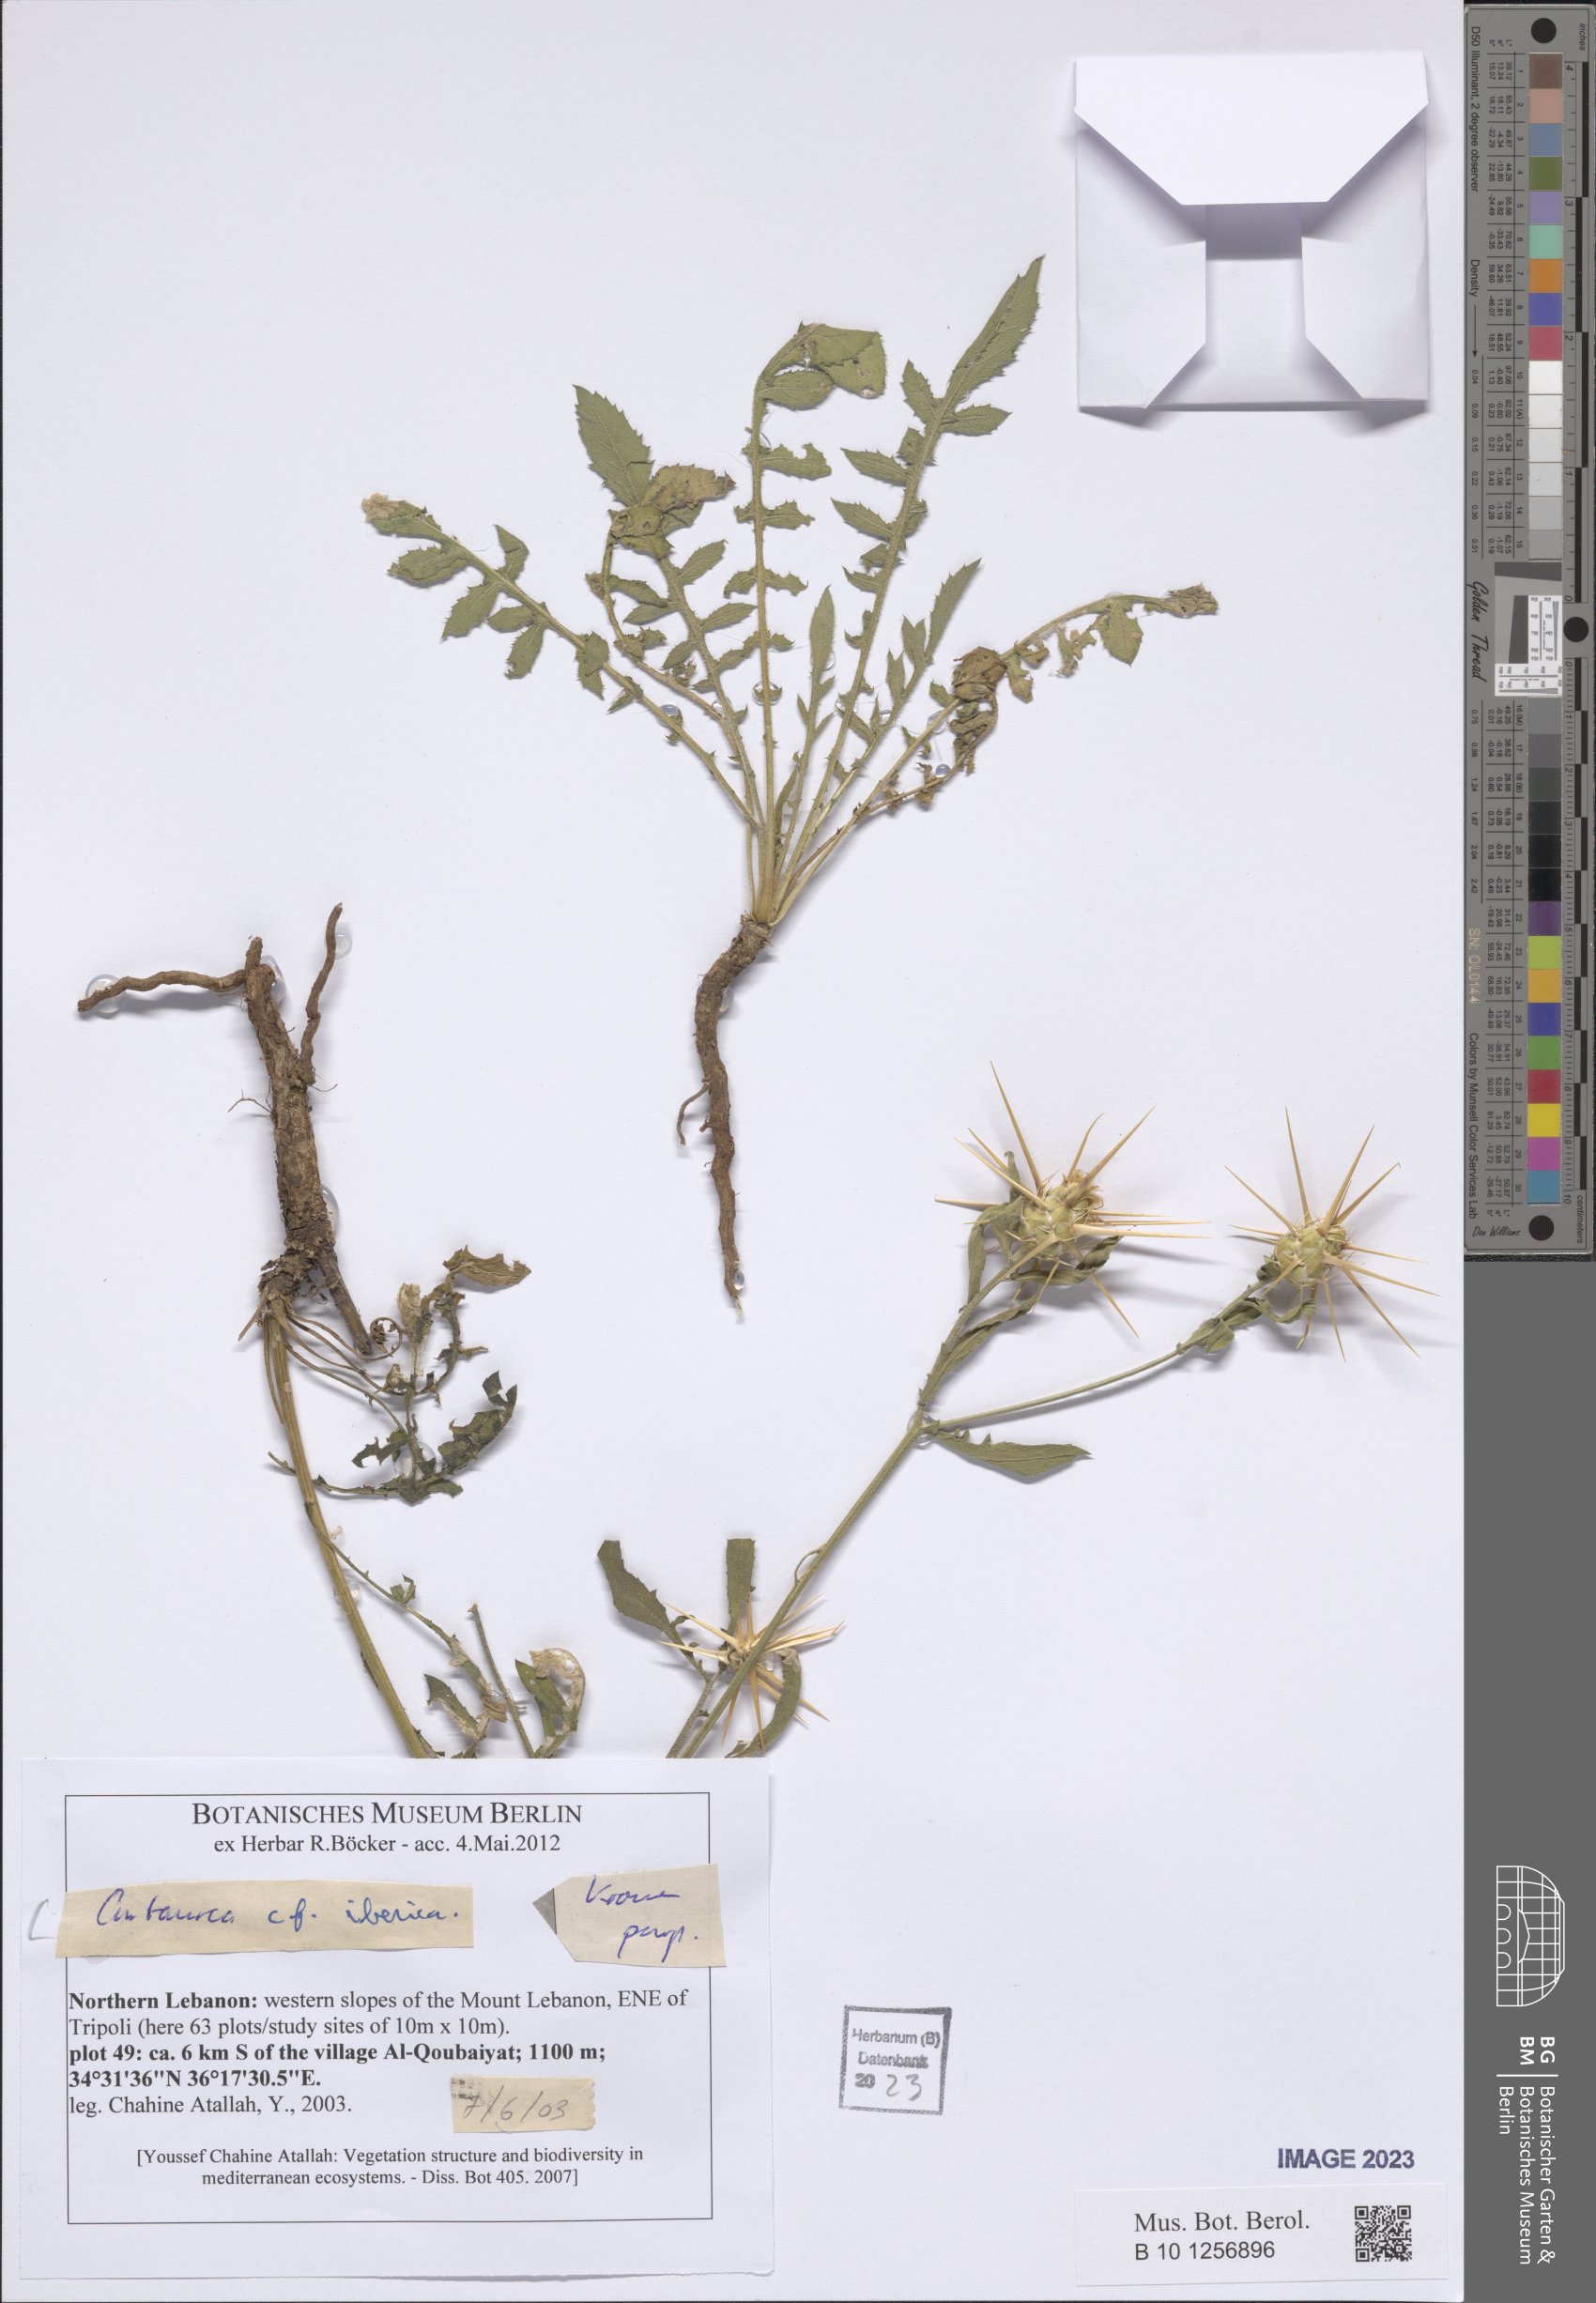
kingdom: Plantae
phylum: Tracheophyta
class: Magnoliopsida
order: Asterales
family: Asteraceae
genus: Centaurea
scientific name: Centaurea iberica
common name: Iberian knapweed
